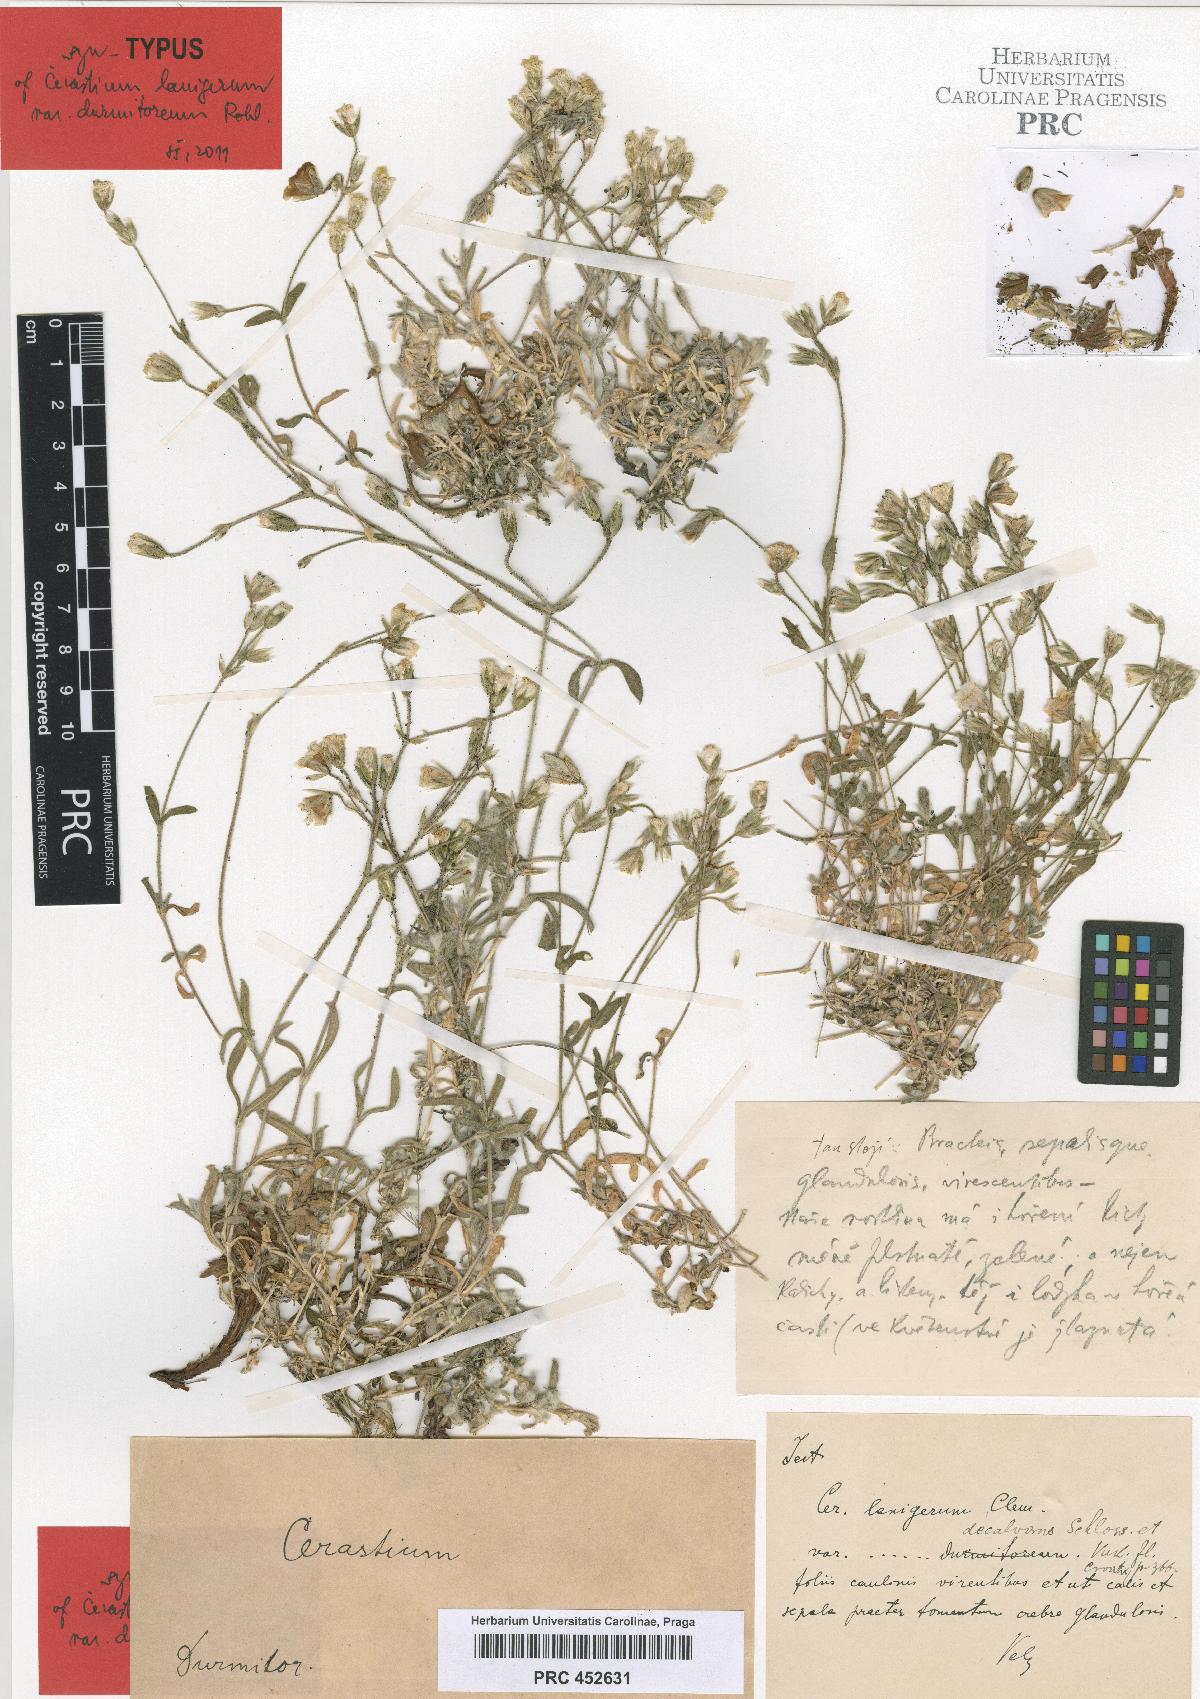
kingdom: Plantae
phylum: Tracheophyta
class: Magnoliopsida
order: Caryophyllales
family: Caryophyllaceae
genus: Cerastium
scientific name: Cerastium decalvans
